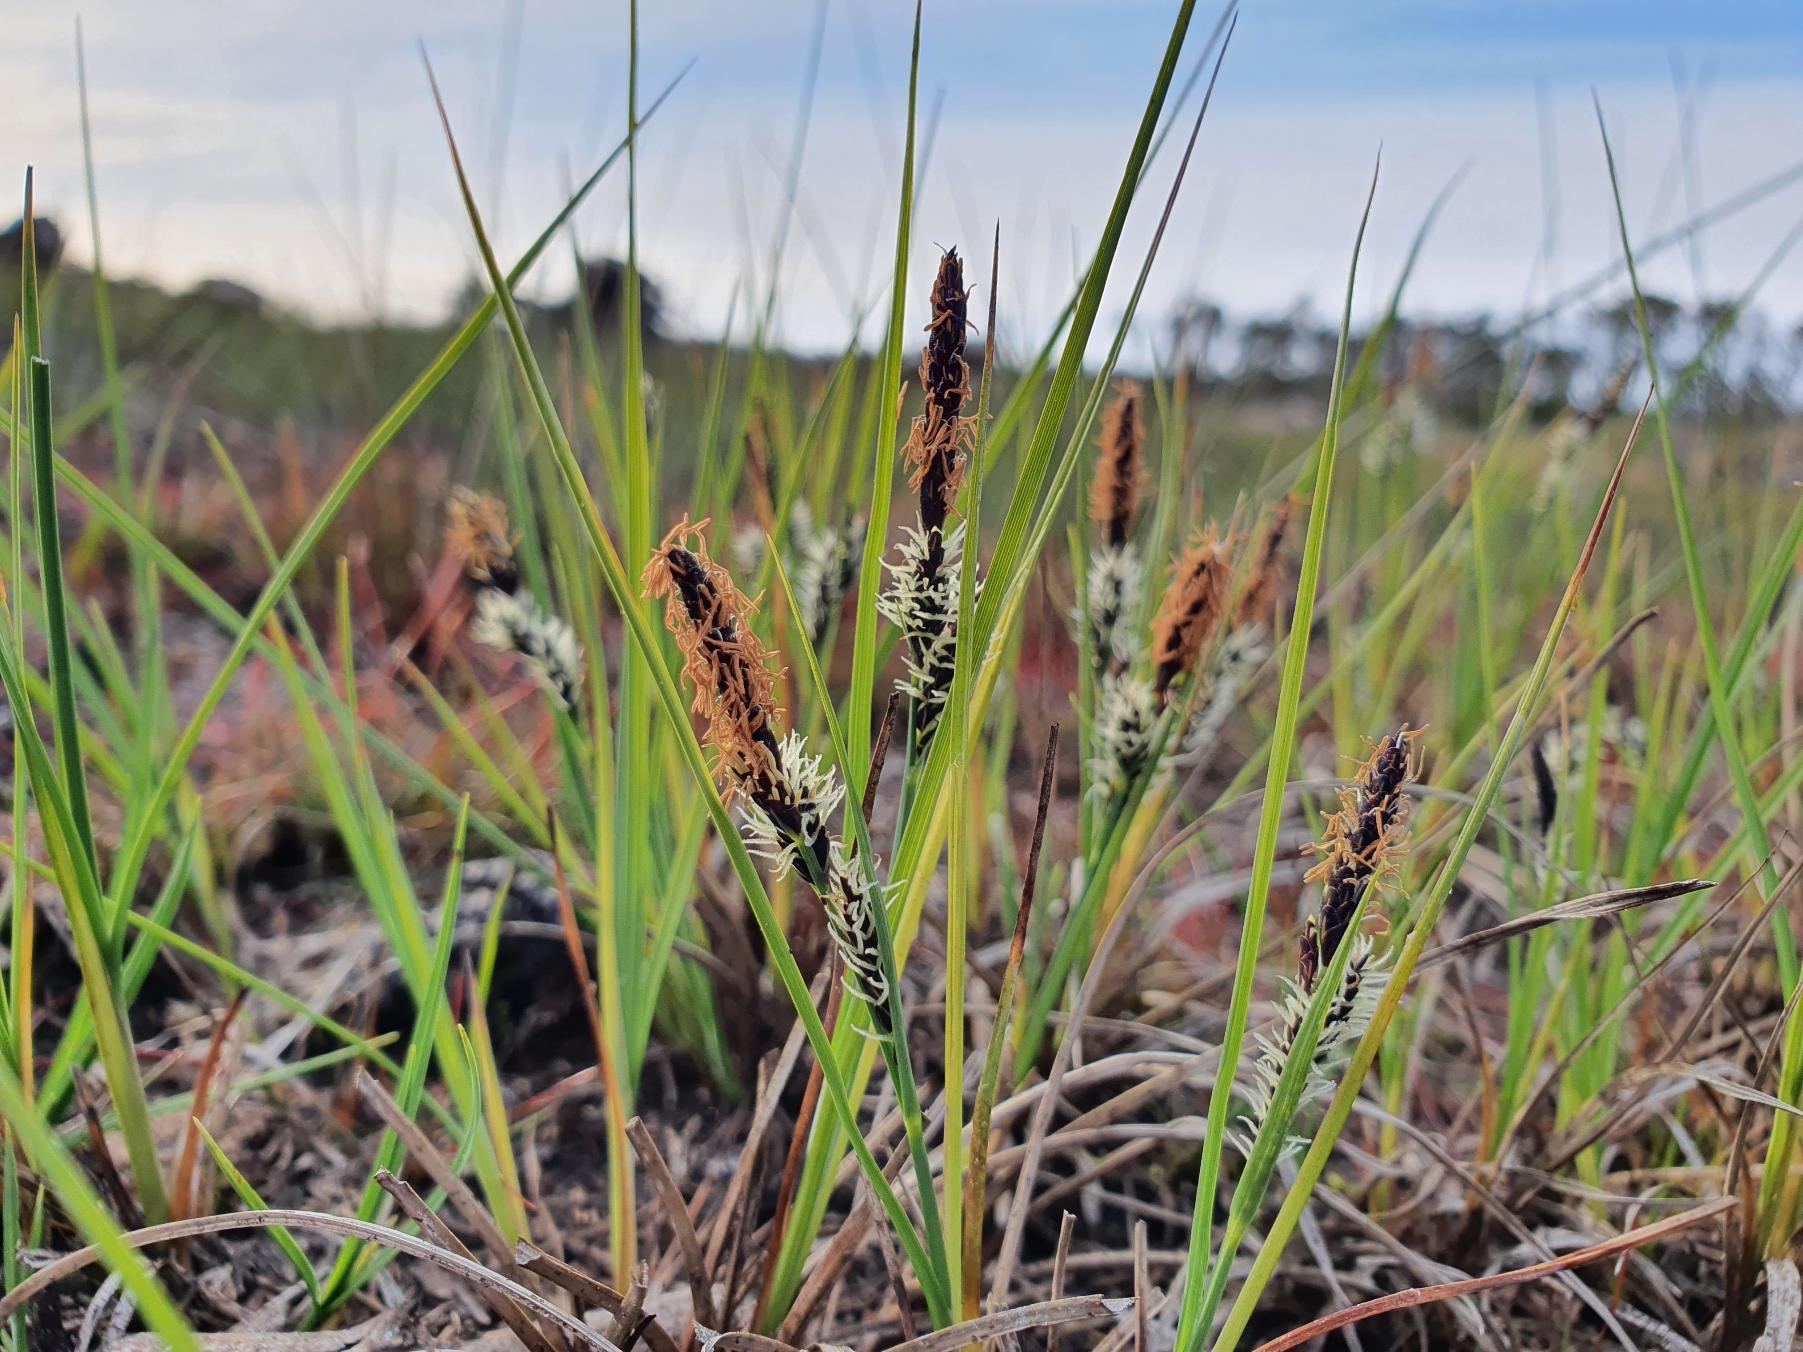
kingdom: Plantae
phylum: Tracheophyta
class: Liliopsida
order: Poales
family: Cyperaceae
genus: Carex
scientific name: Carex nigra
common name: Almindelig star
